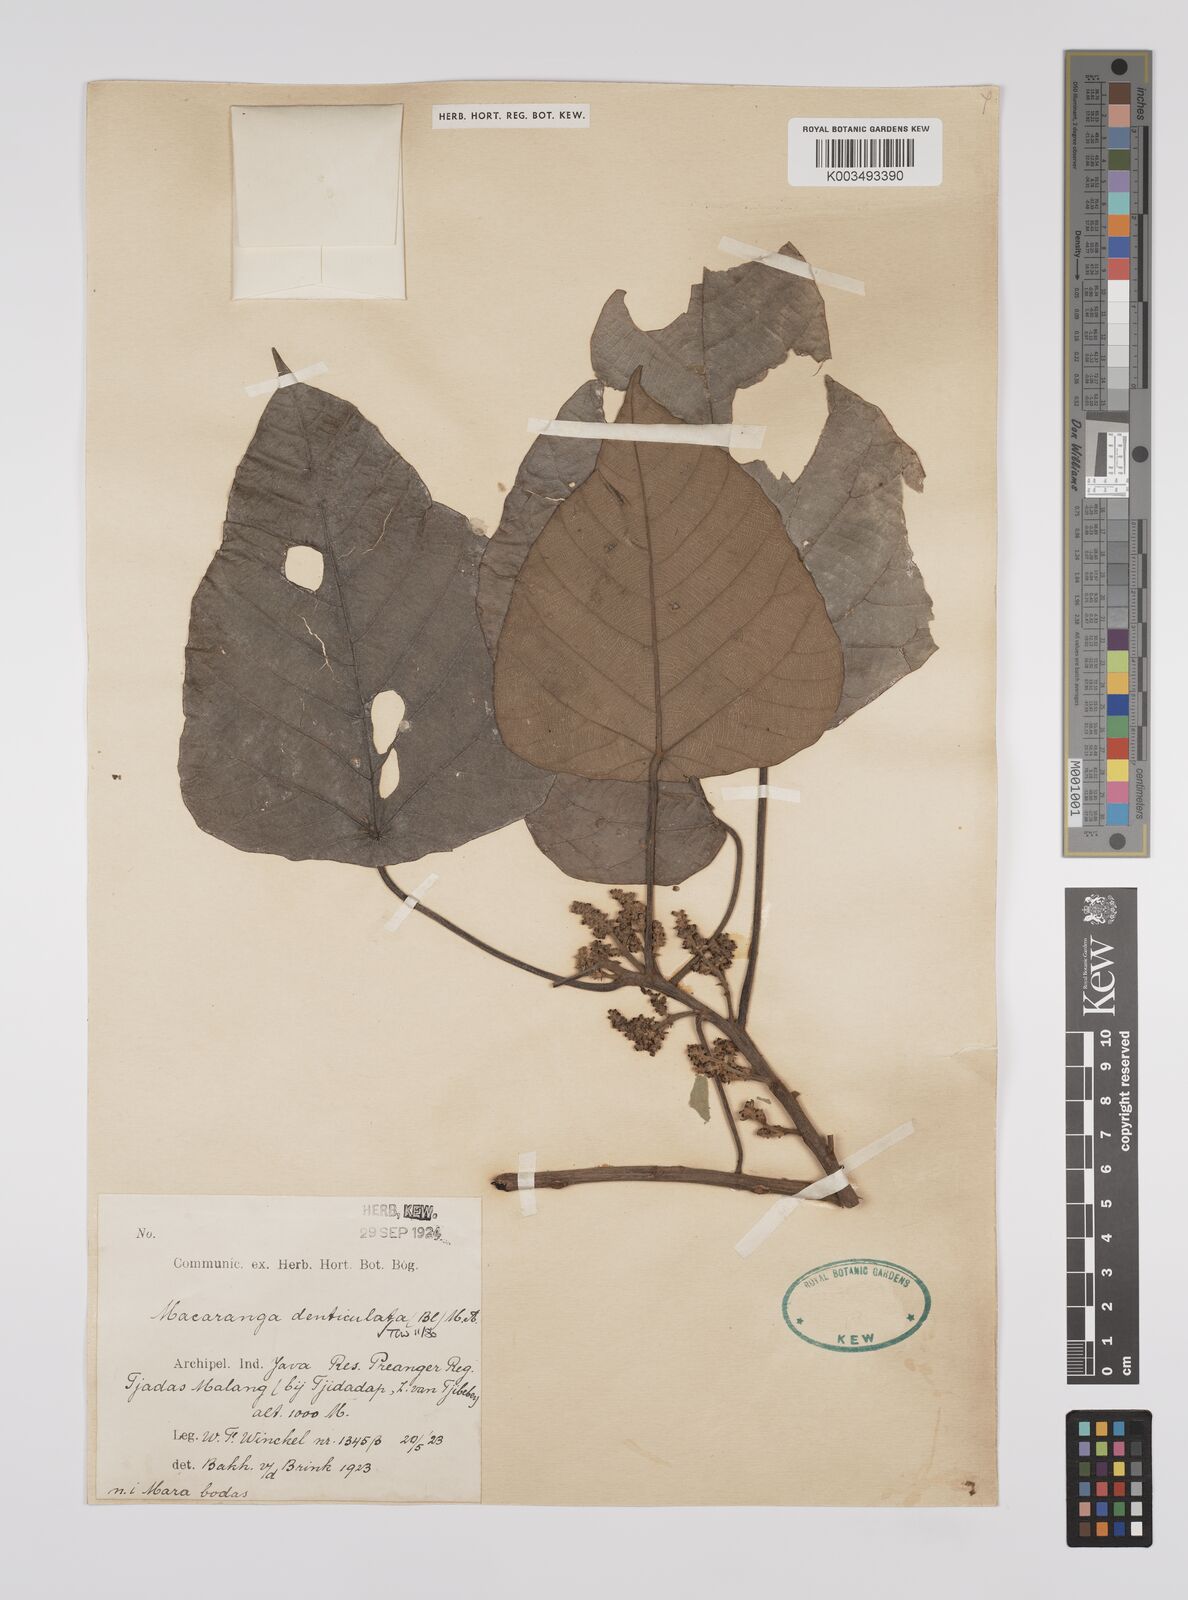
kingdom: Plantae
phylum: Tracheophyta
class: Magnoliopsida
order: Malpighiales
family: Euphorbiaceae
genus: Macaranga
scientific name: Macaranga denticulata
